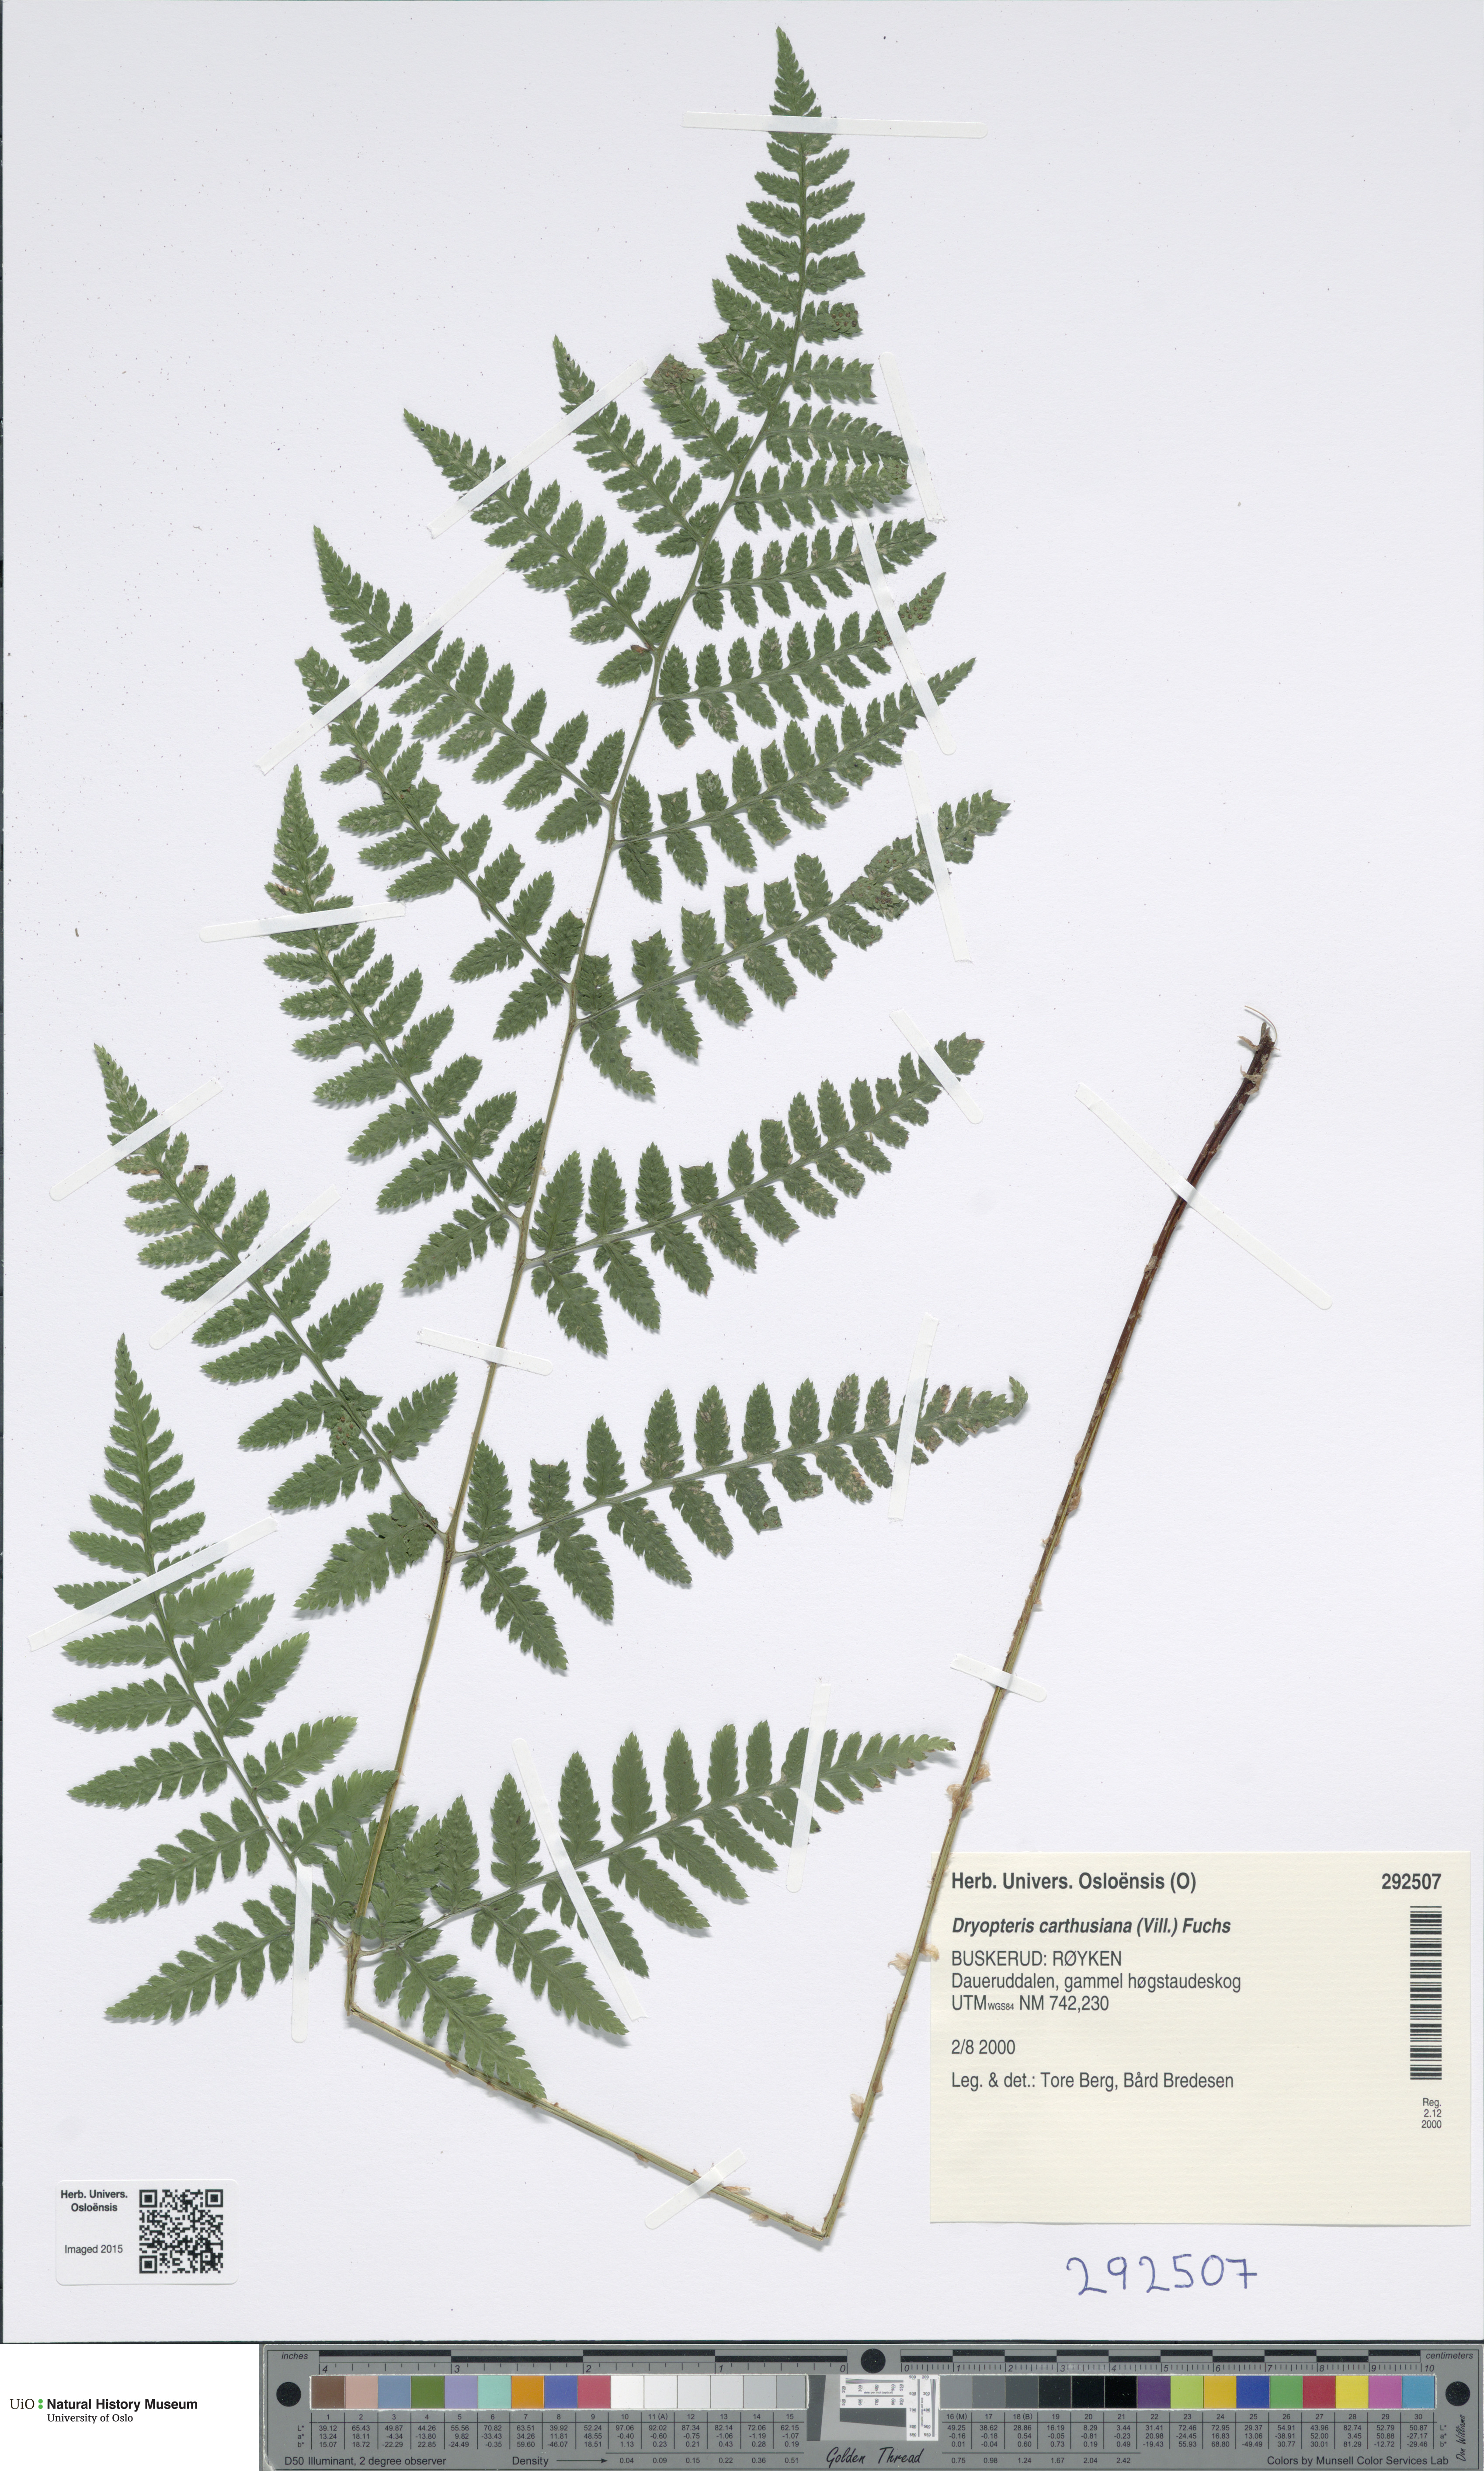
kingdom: Plantae
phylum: Tracheophyta
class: Polypodiopsida
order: Polypodiales
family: Dryopteridaceae
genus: Dryopteris
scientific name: Dryopteris carthusiana
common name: Narrow buckler-fern
